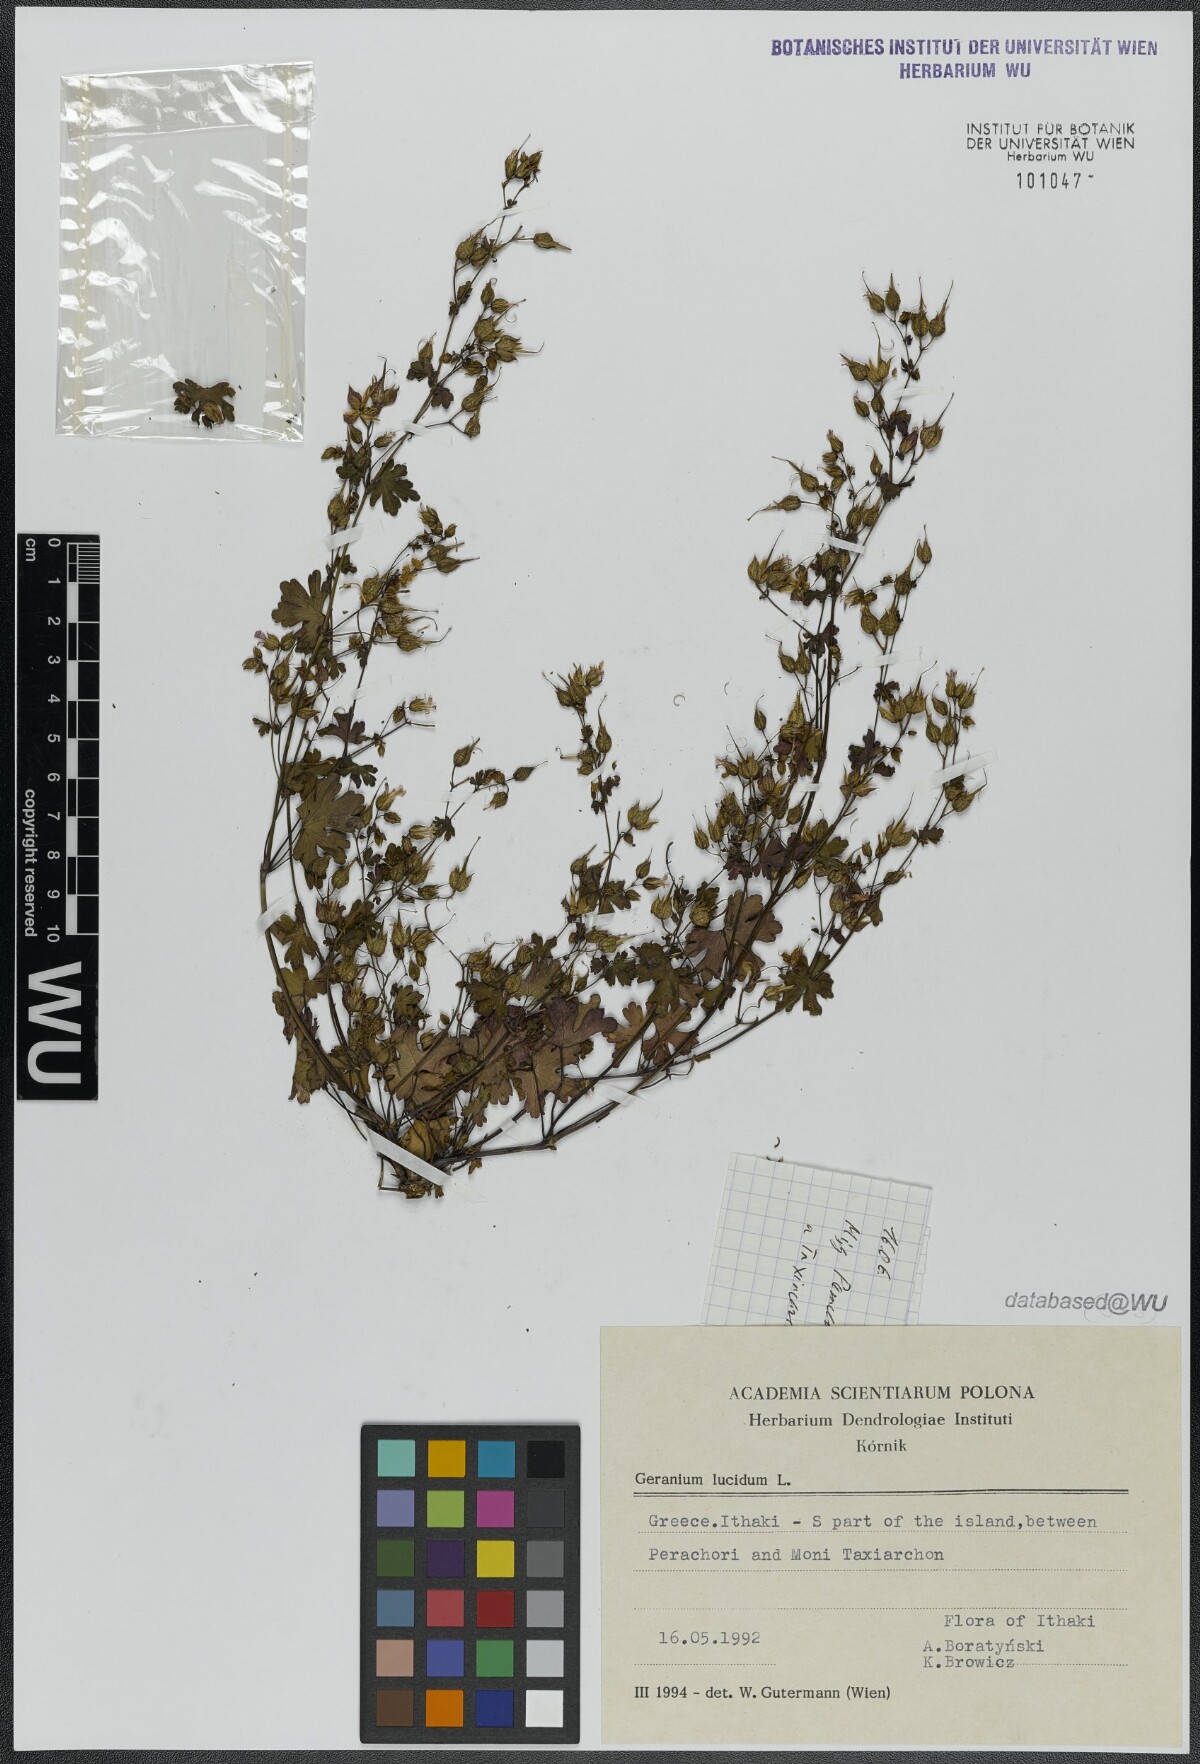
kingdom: Plantae
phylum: Tracheophyta
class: Magnoliopsida
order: Geraniales
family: Geraniaceae
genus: Geranium
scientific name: Geranium lucidum
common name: Shining crane's-bill
